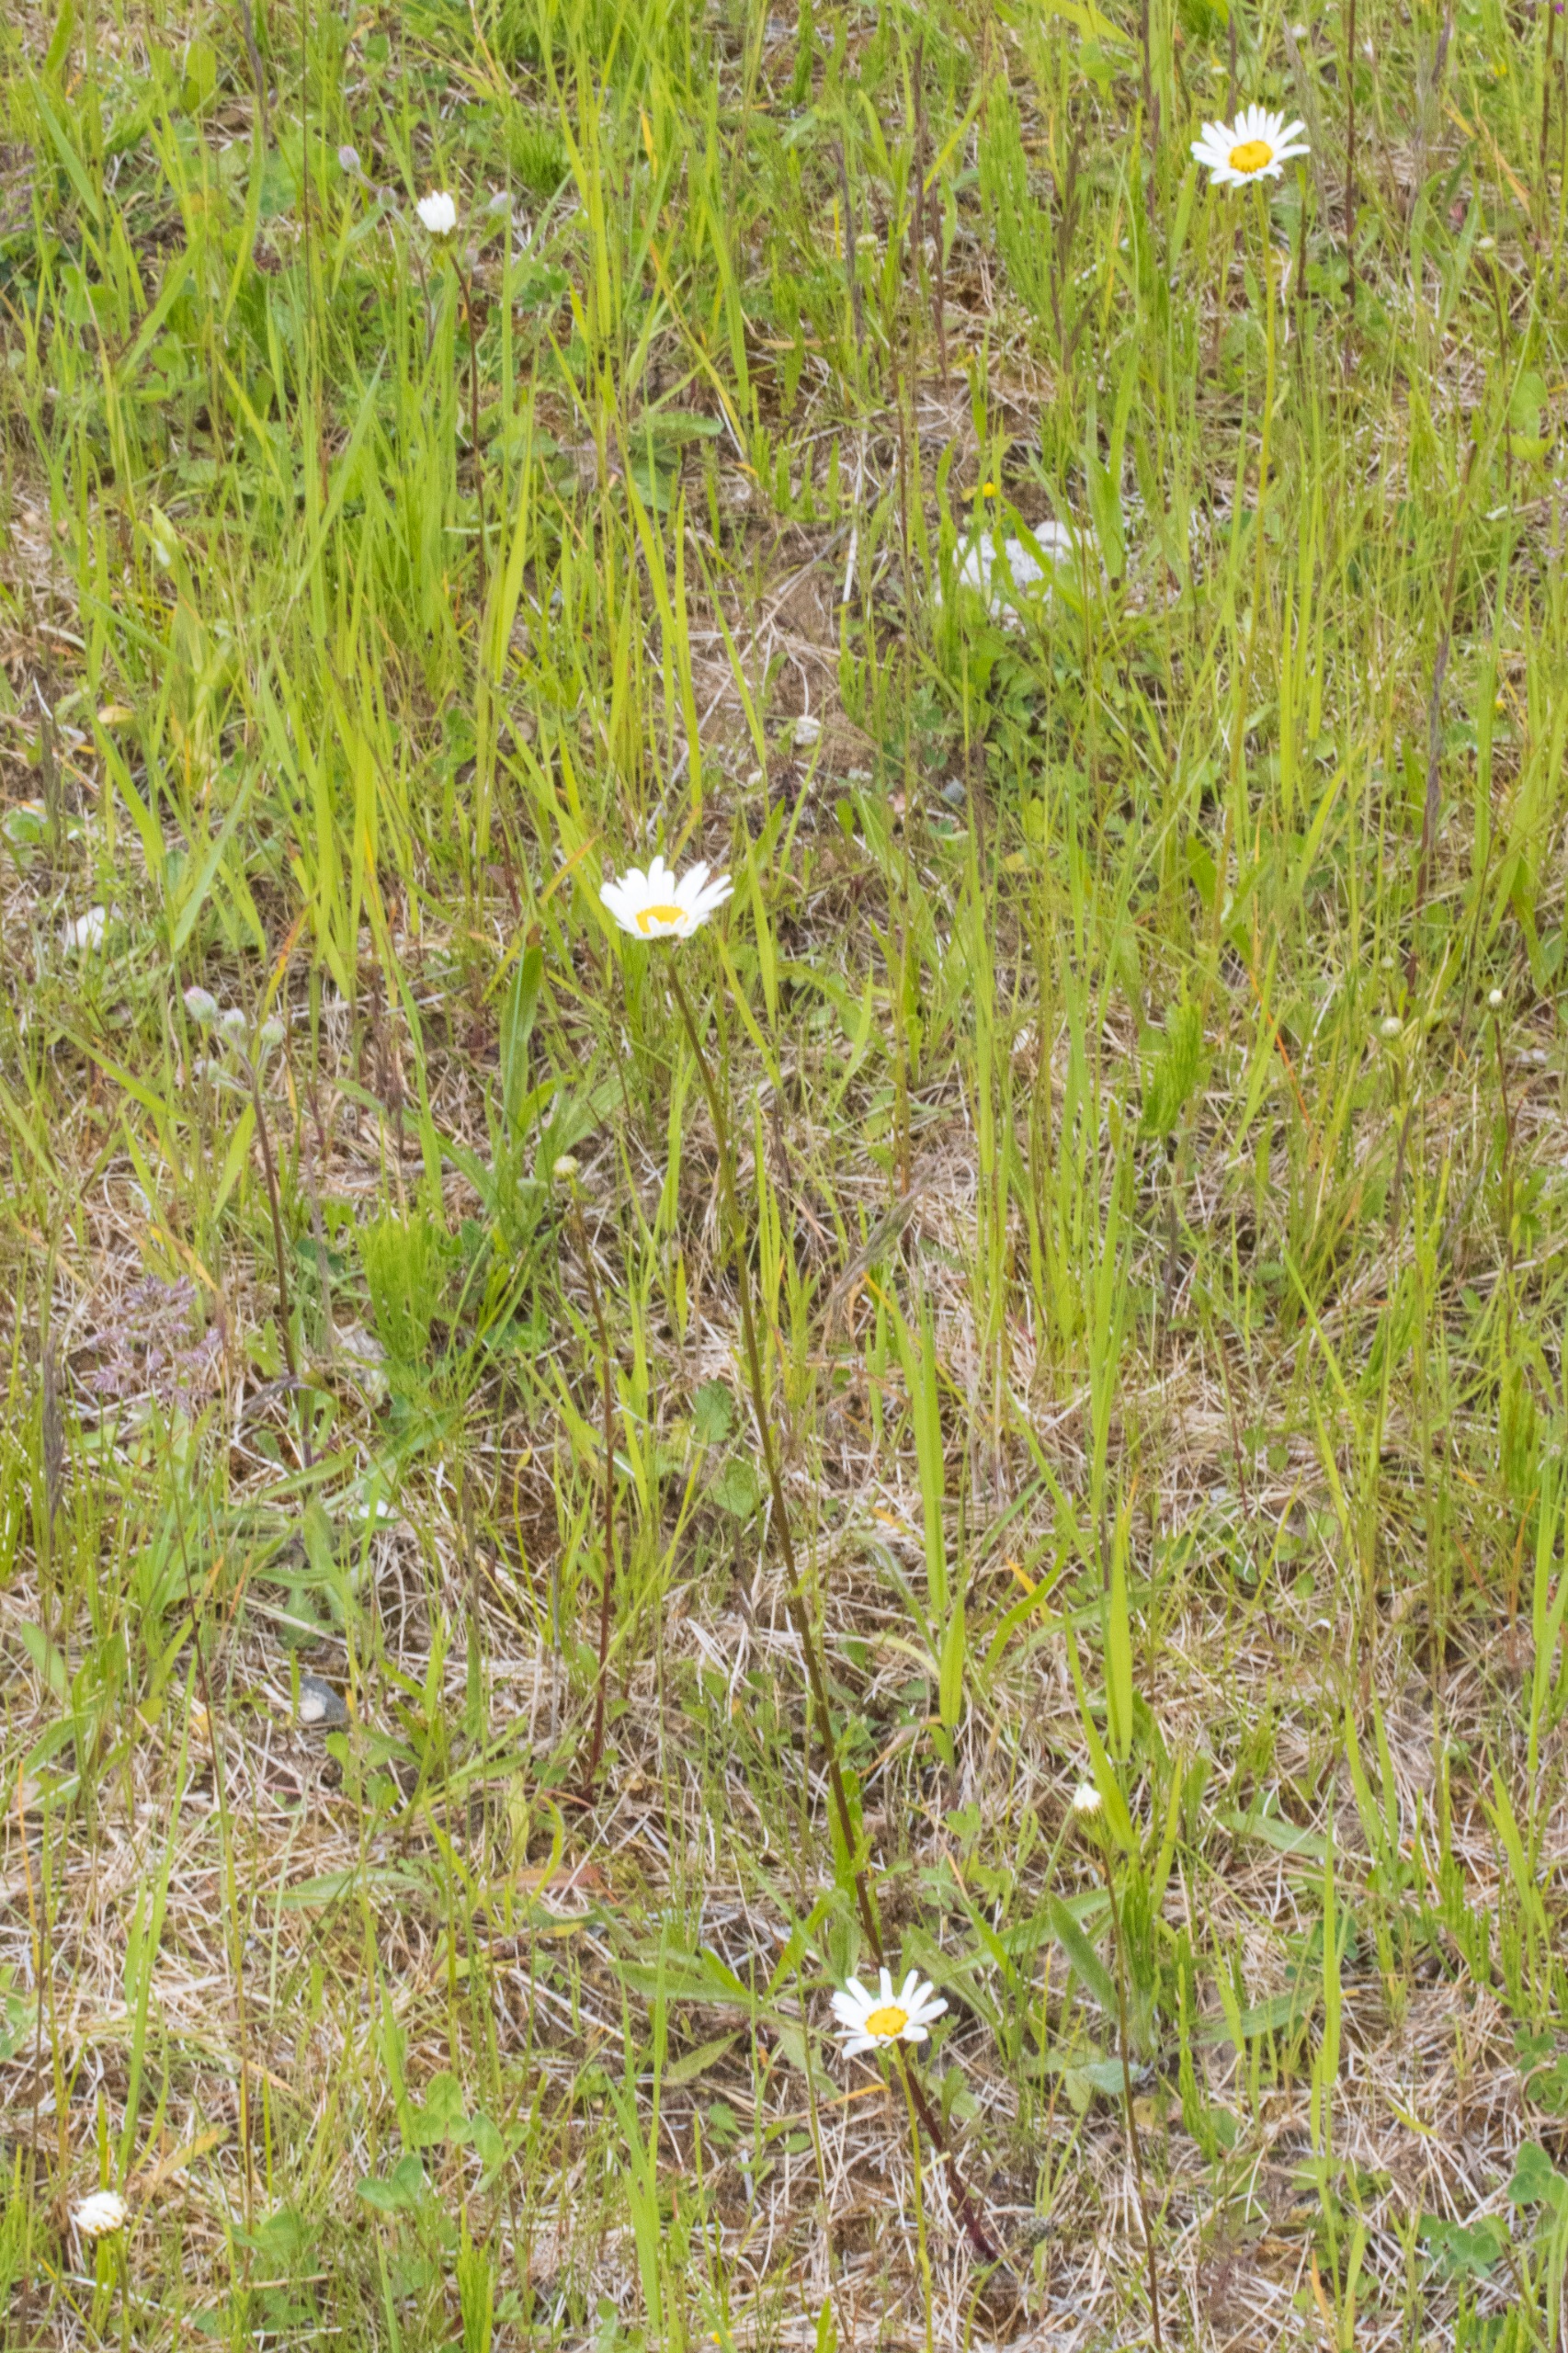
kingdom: Plantae
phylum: Tracheophyta
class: Magnoliopsida
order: Asterales
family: Asteraceae
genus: Leucanthemum
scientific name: Leucanthemum vulgare
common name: Hvid okseøje
